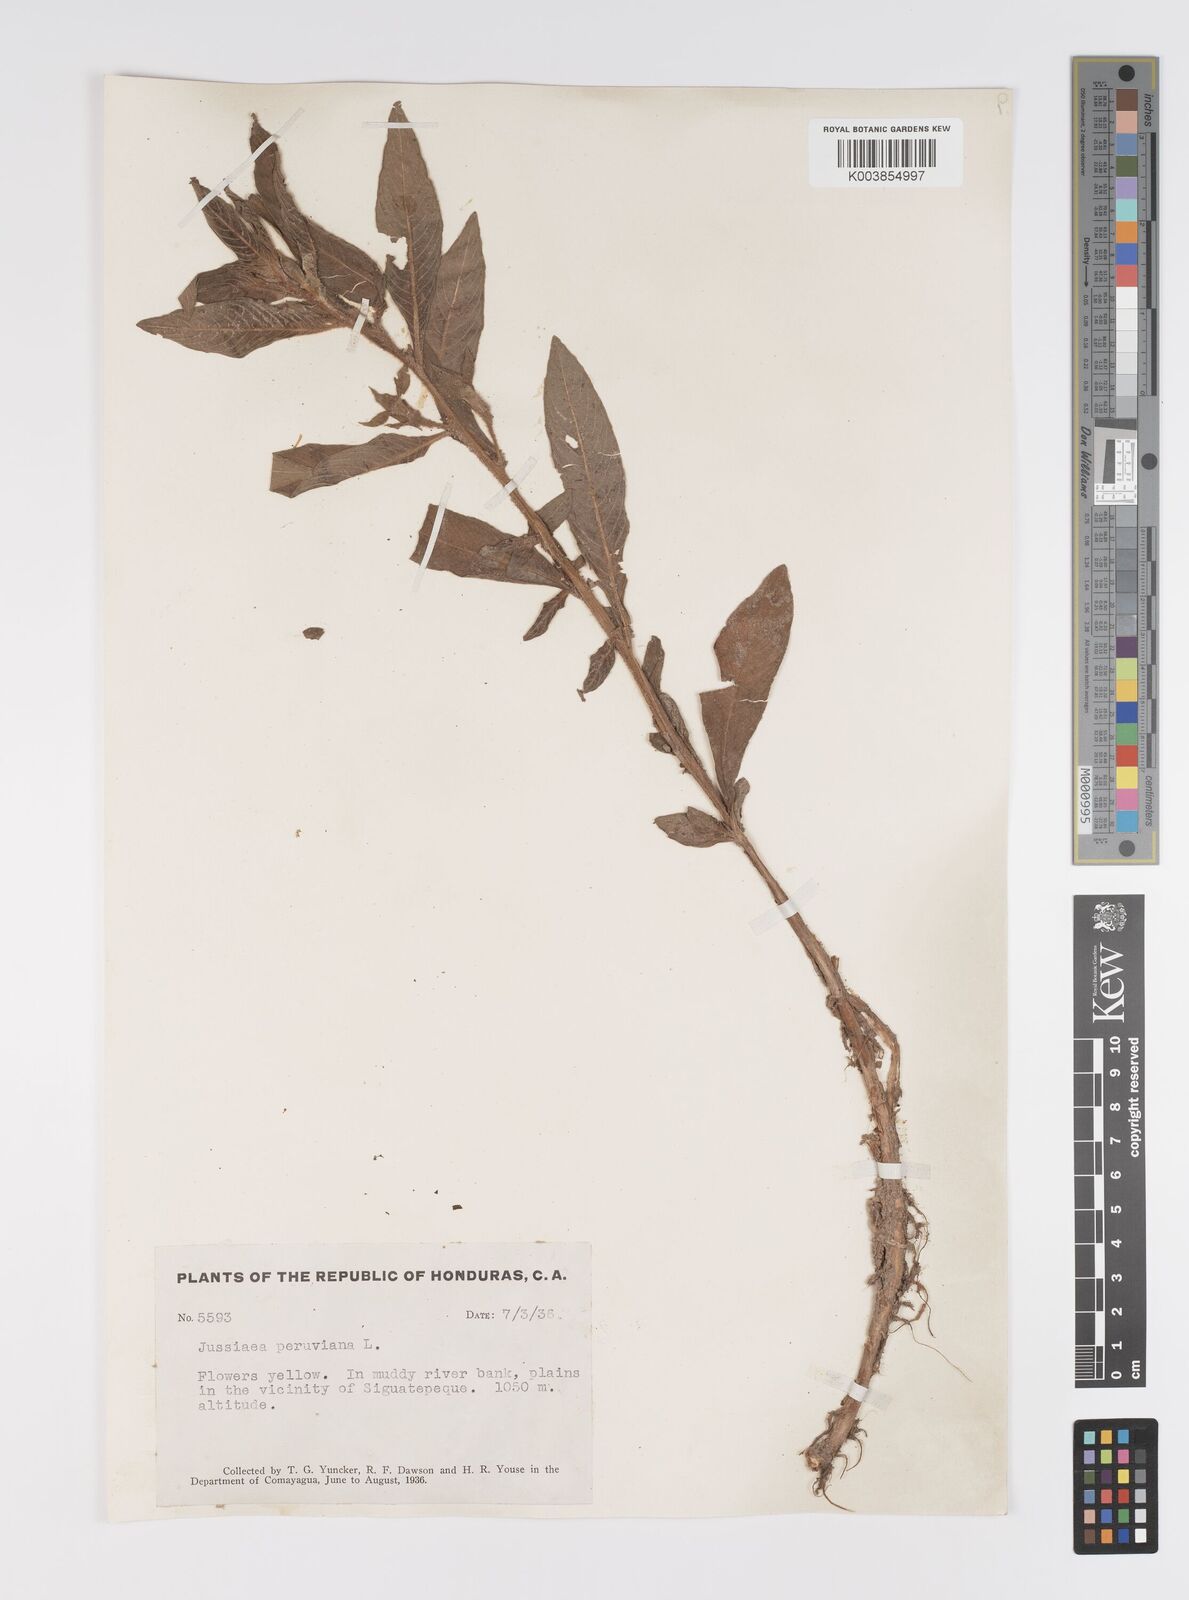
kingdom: Plantae
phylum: Tracheophyta
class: Magnoliopsida
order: Myrtales
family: Onagraceae
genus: Ludwigia
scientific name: Ludwigia peruviana
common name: Peruvian primrose-willow
